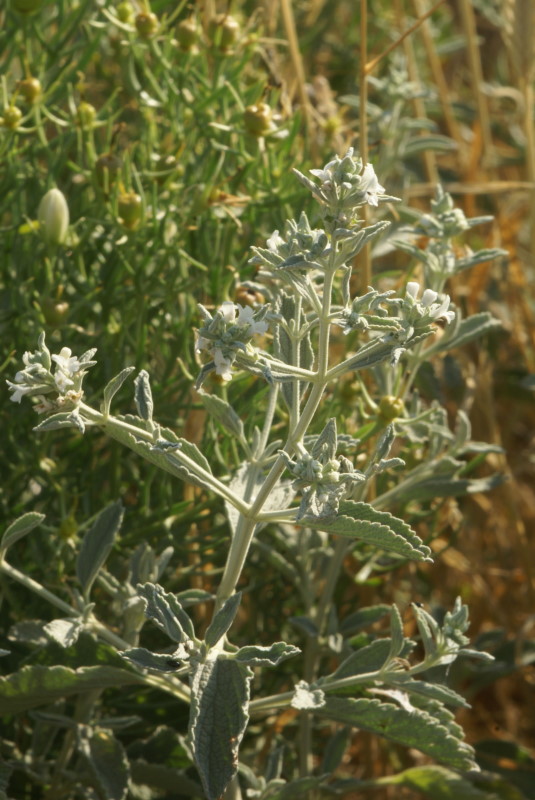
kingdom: Plantae
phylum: Tracheophyta
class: Magnoliopsida
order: Lamiales
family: Lamiaceae
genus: Teucrium
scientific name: Teucrium polium
